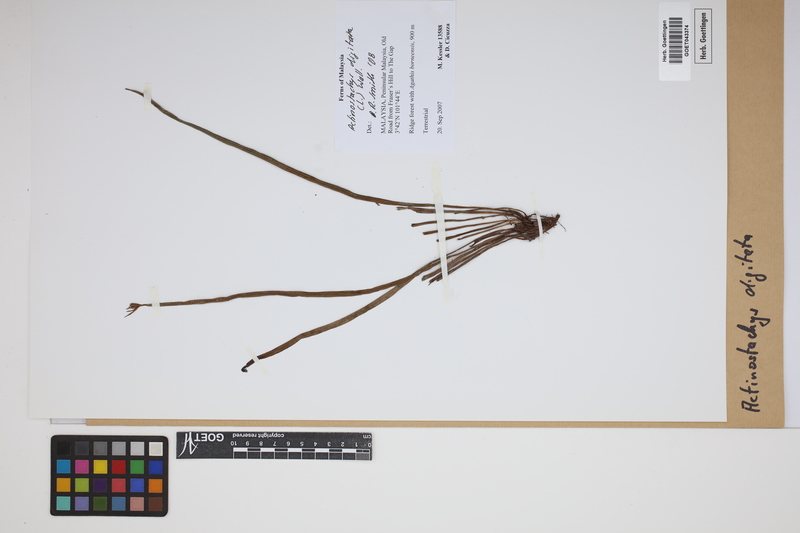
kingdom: Plantae
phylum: Tracheophyta
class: Polypodiopsida
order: Schizaeales
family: Schizaeaceae
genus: Actinostachys
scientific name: Actinostachys digitata
